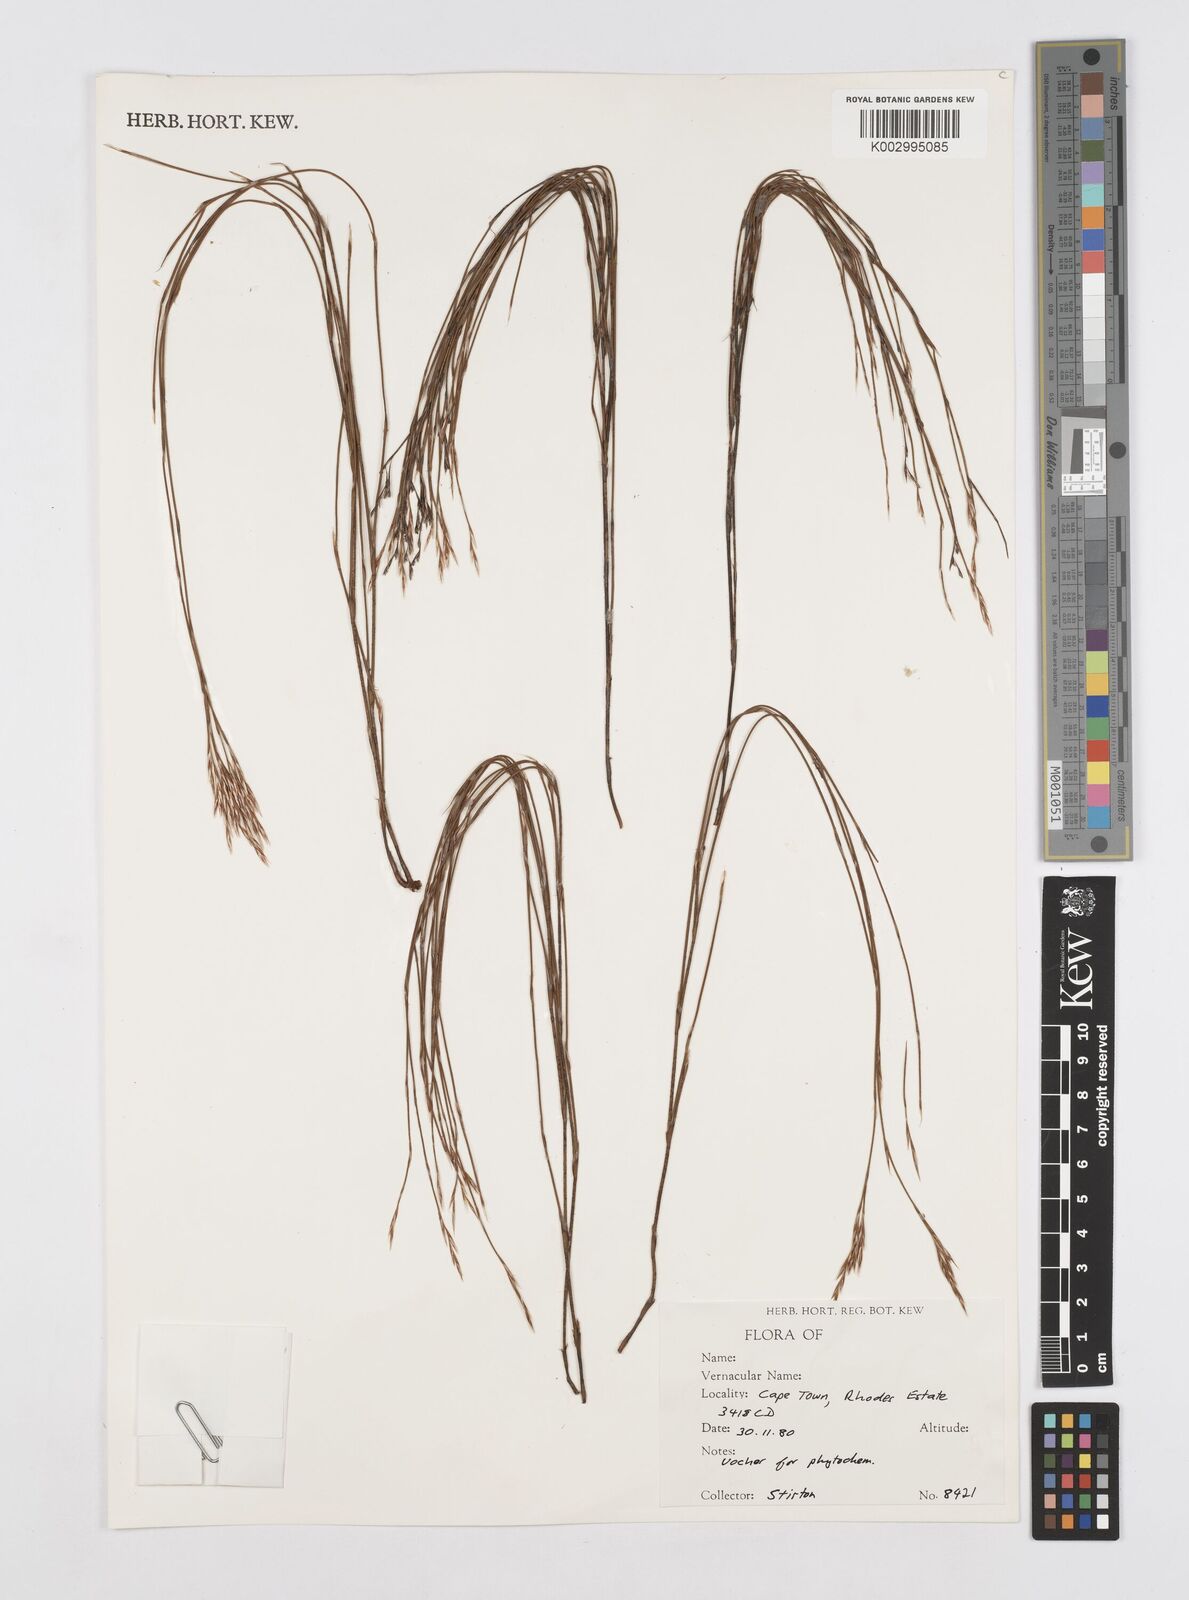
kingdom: Plantae
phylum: Tracheophyta
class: Liliopsida
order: Poales
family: Restionaceae
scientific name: Restionaceae
